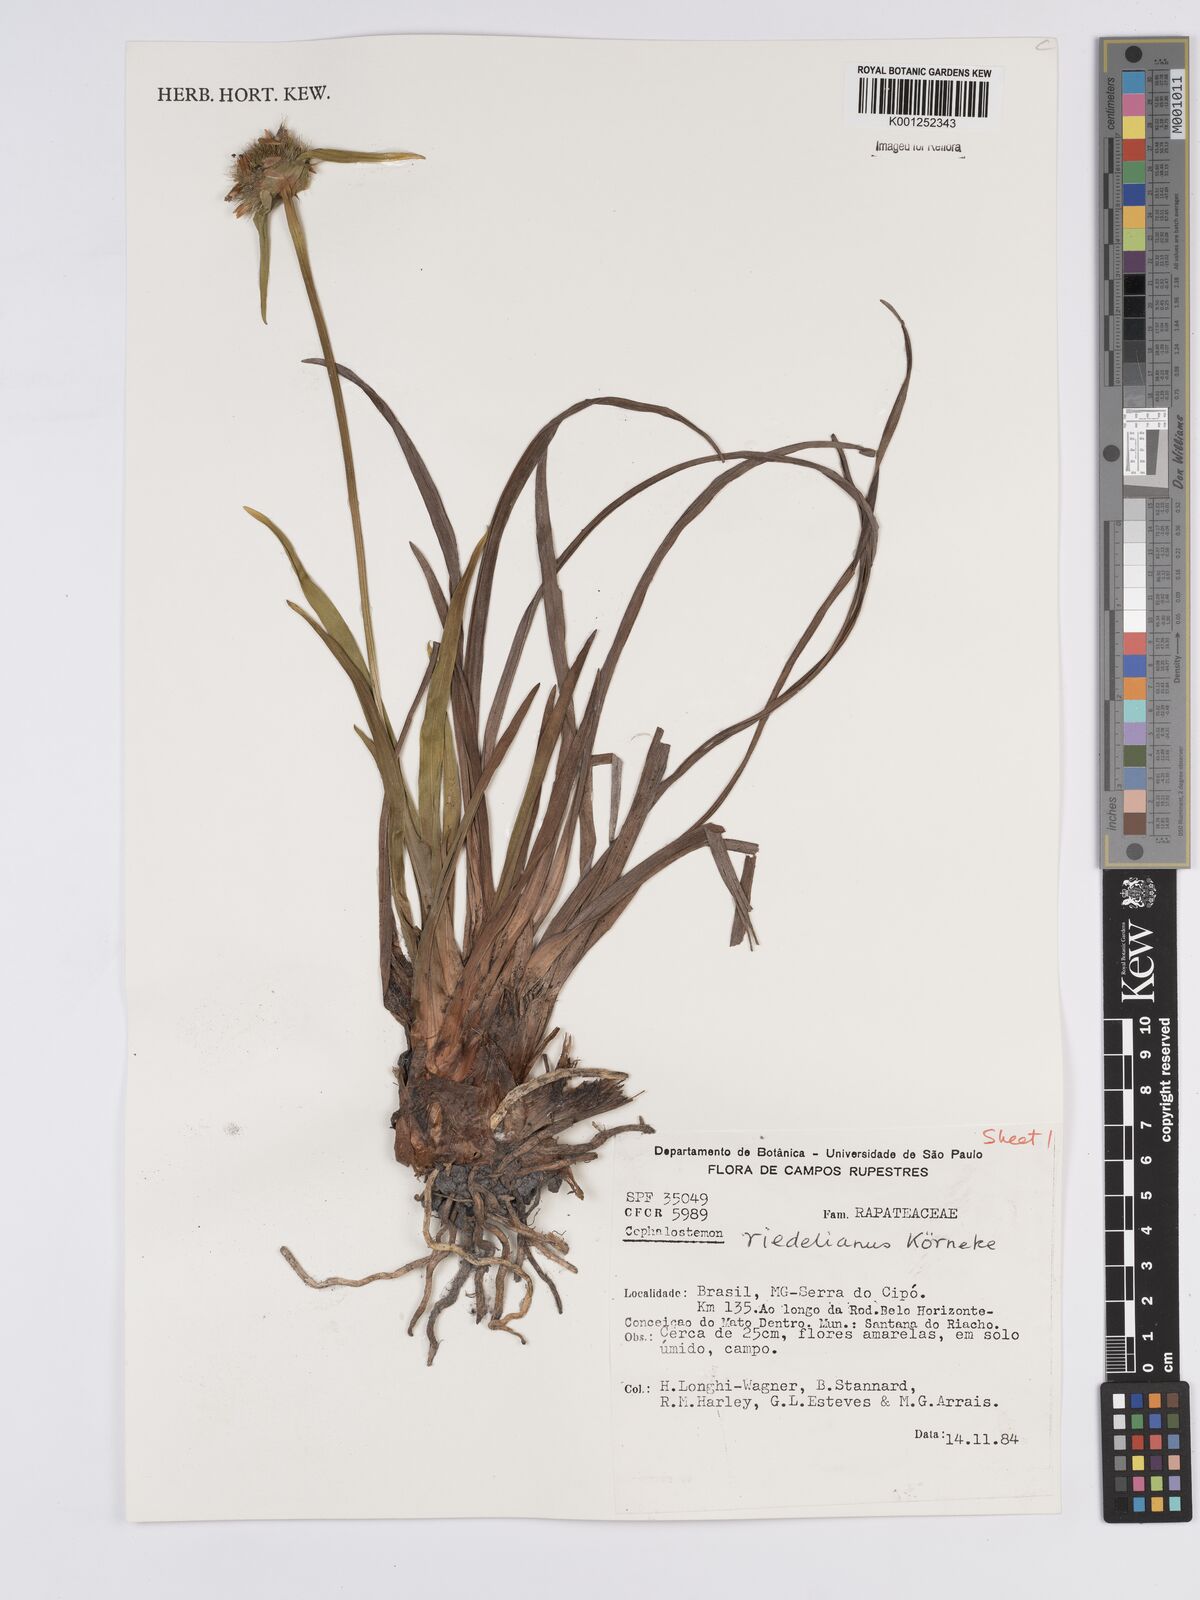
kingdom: Plantae
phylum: Tracheophyta
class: Liliopsida
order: Poales
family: Rapateaceae
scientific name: Rapateaceae
